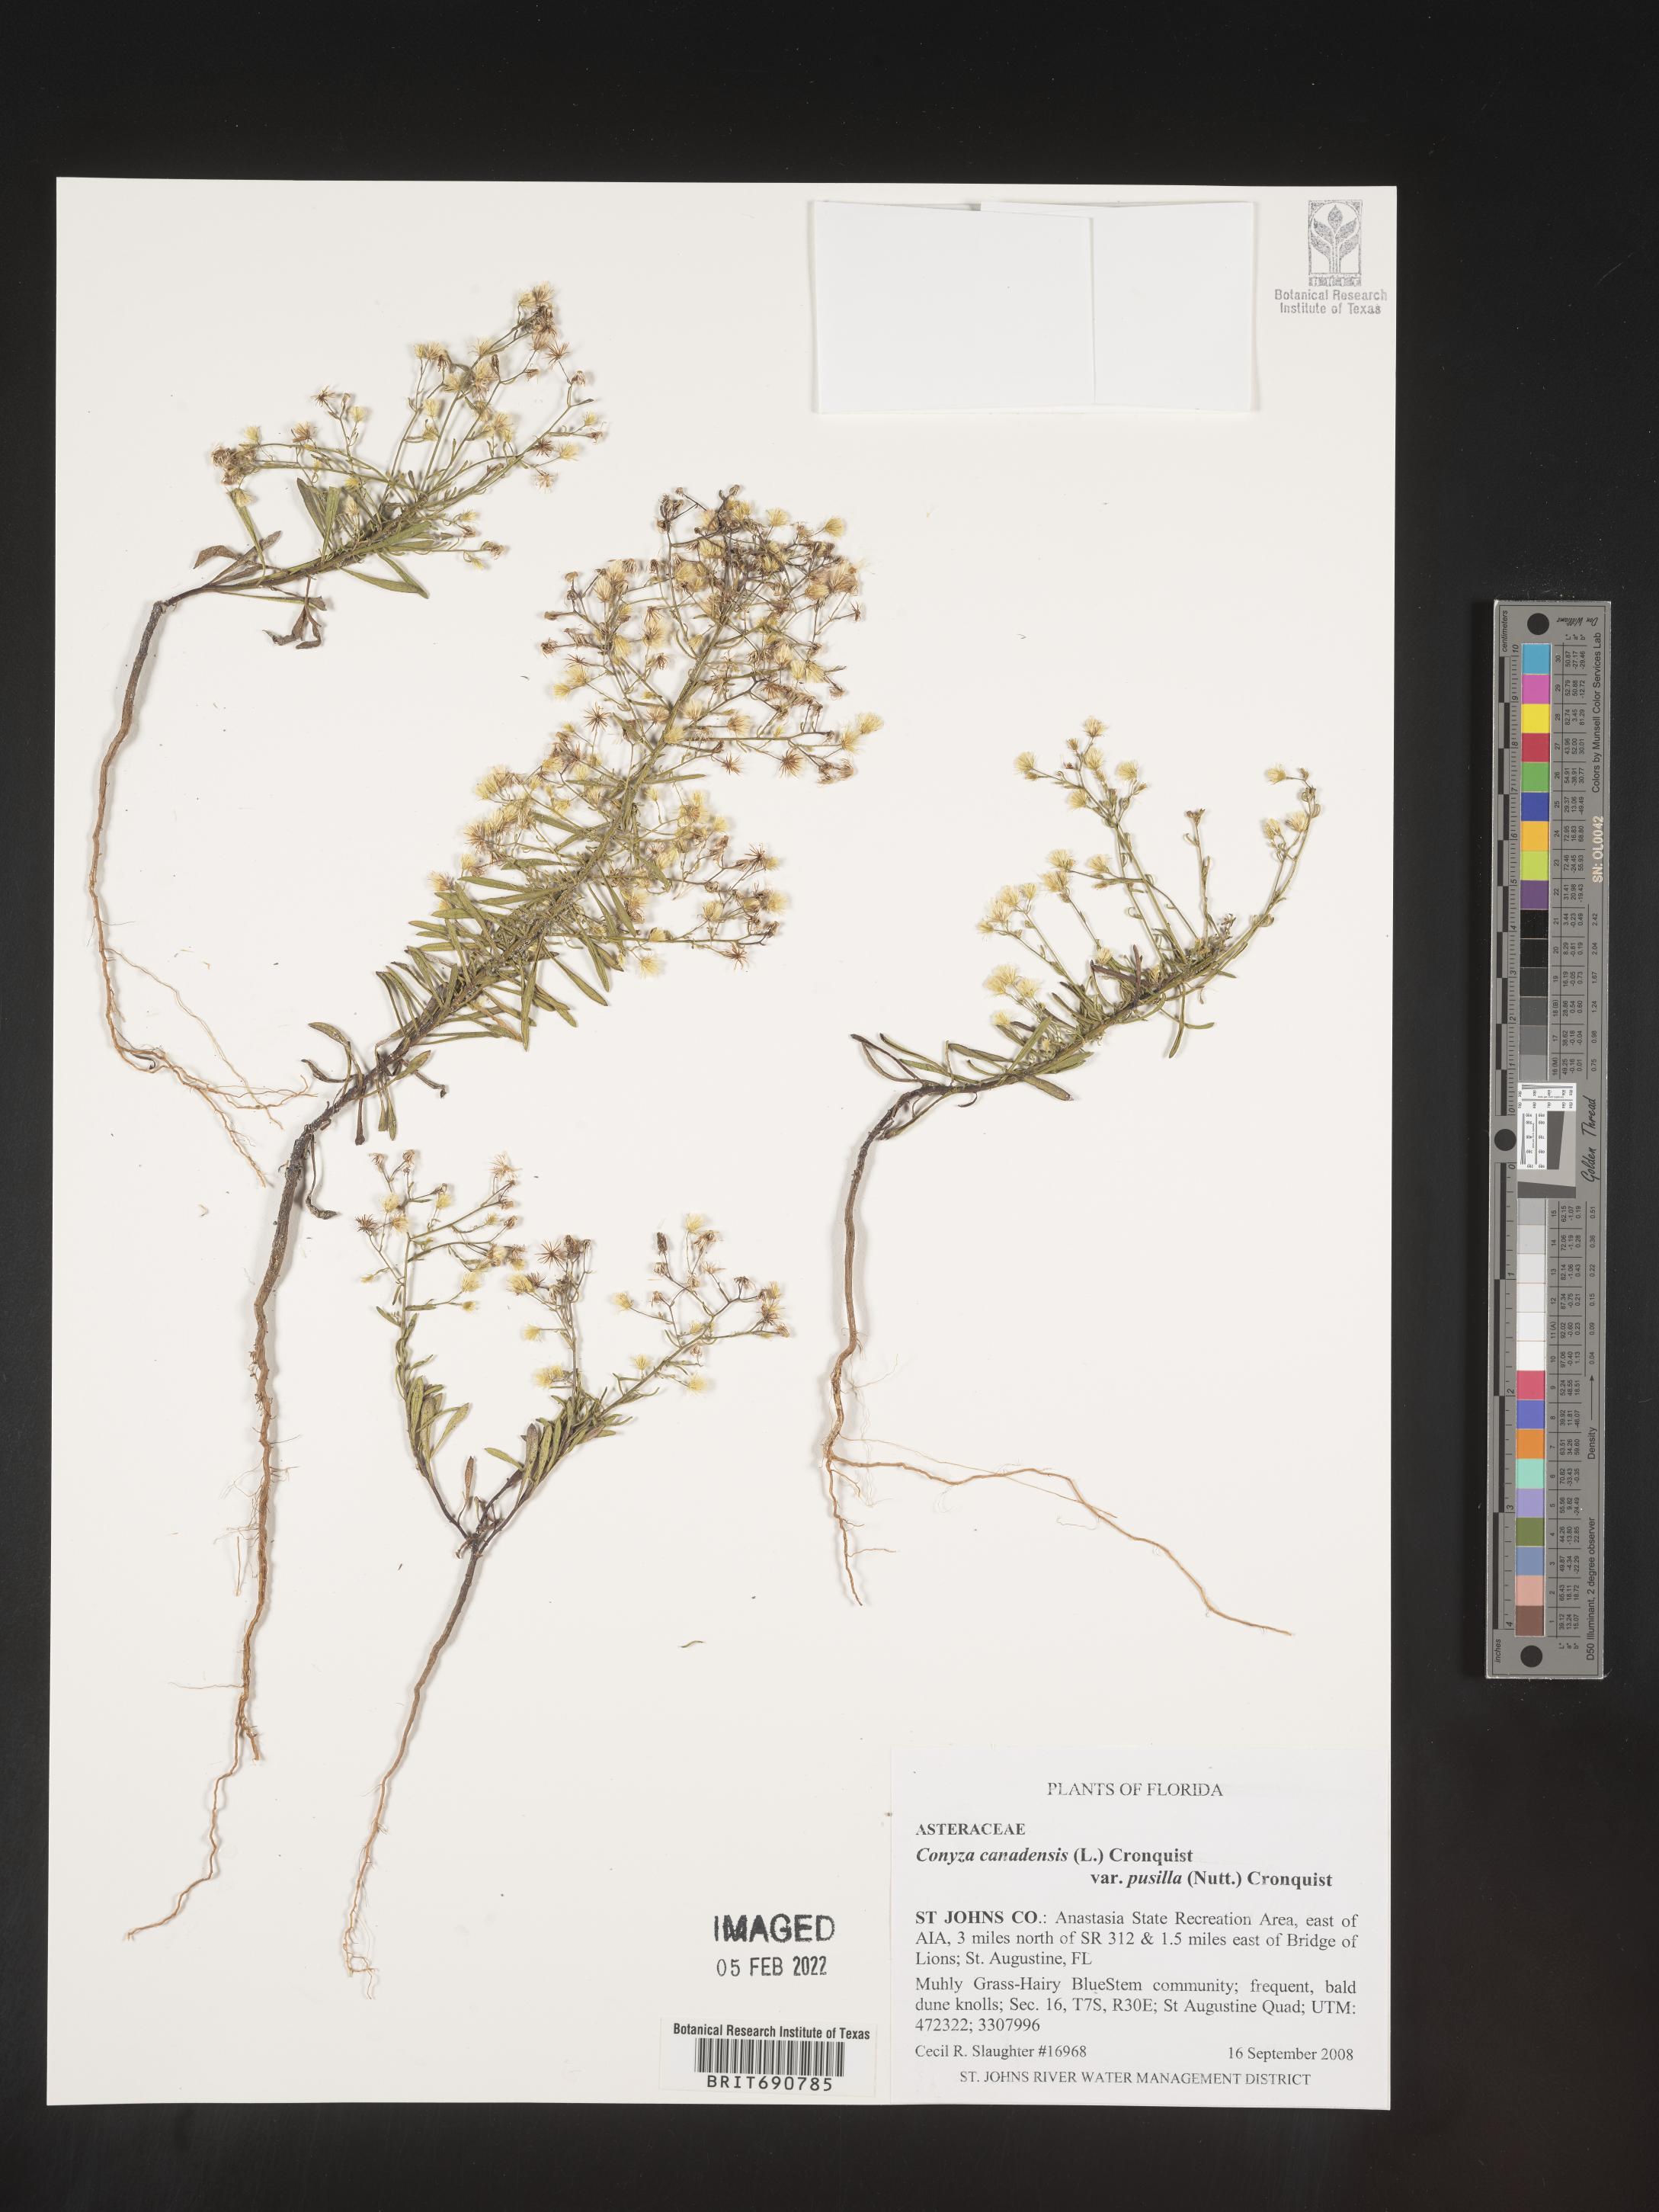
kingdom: Plantae
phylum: Tracheophyta
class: Magnoliopsida
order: Asterales
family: Asteraceae
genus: Erigeron
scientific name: Erigeron canadensis
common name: Canadian fleabane
